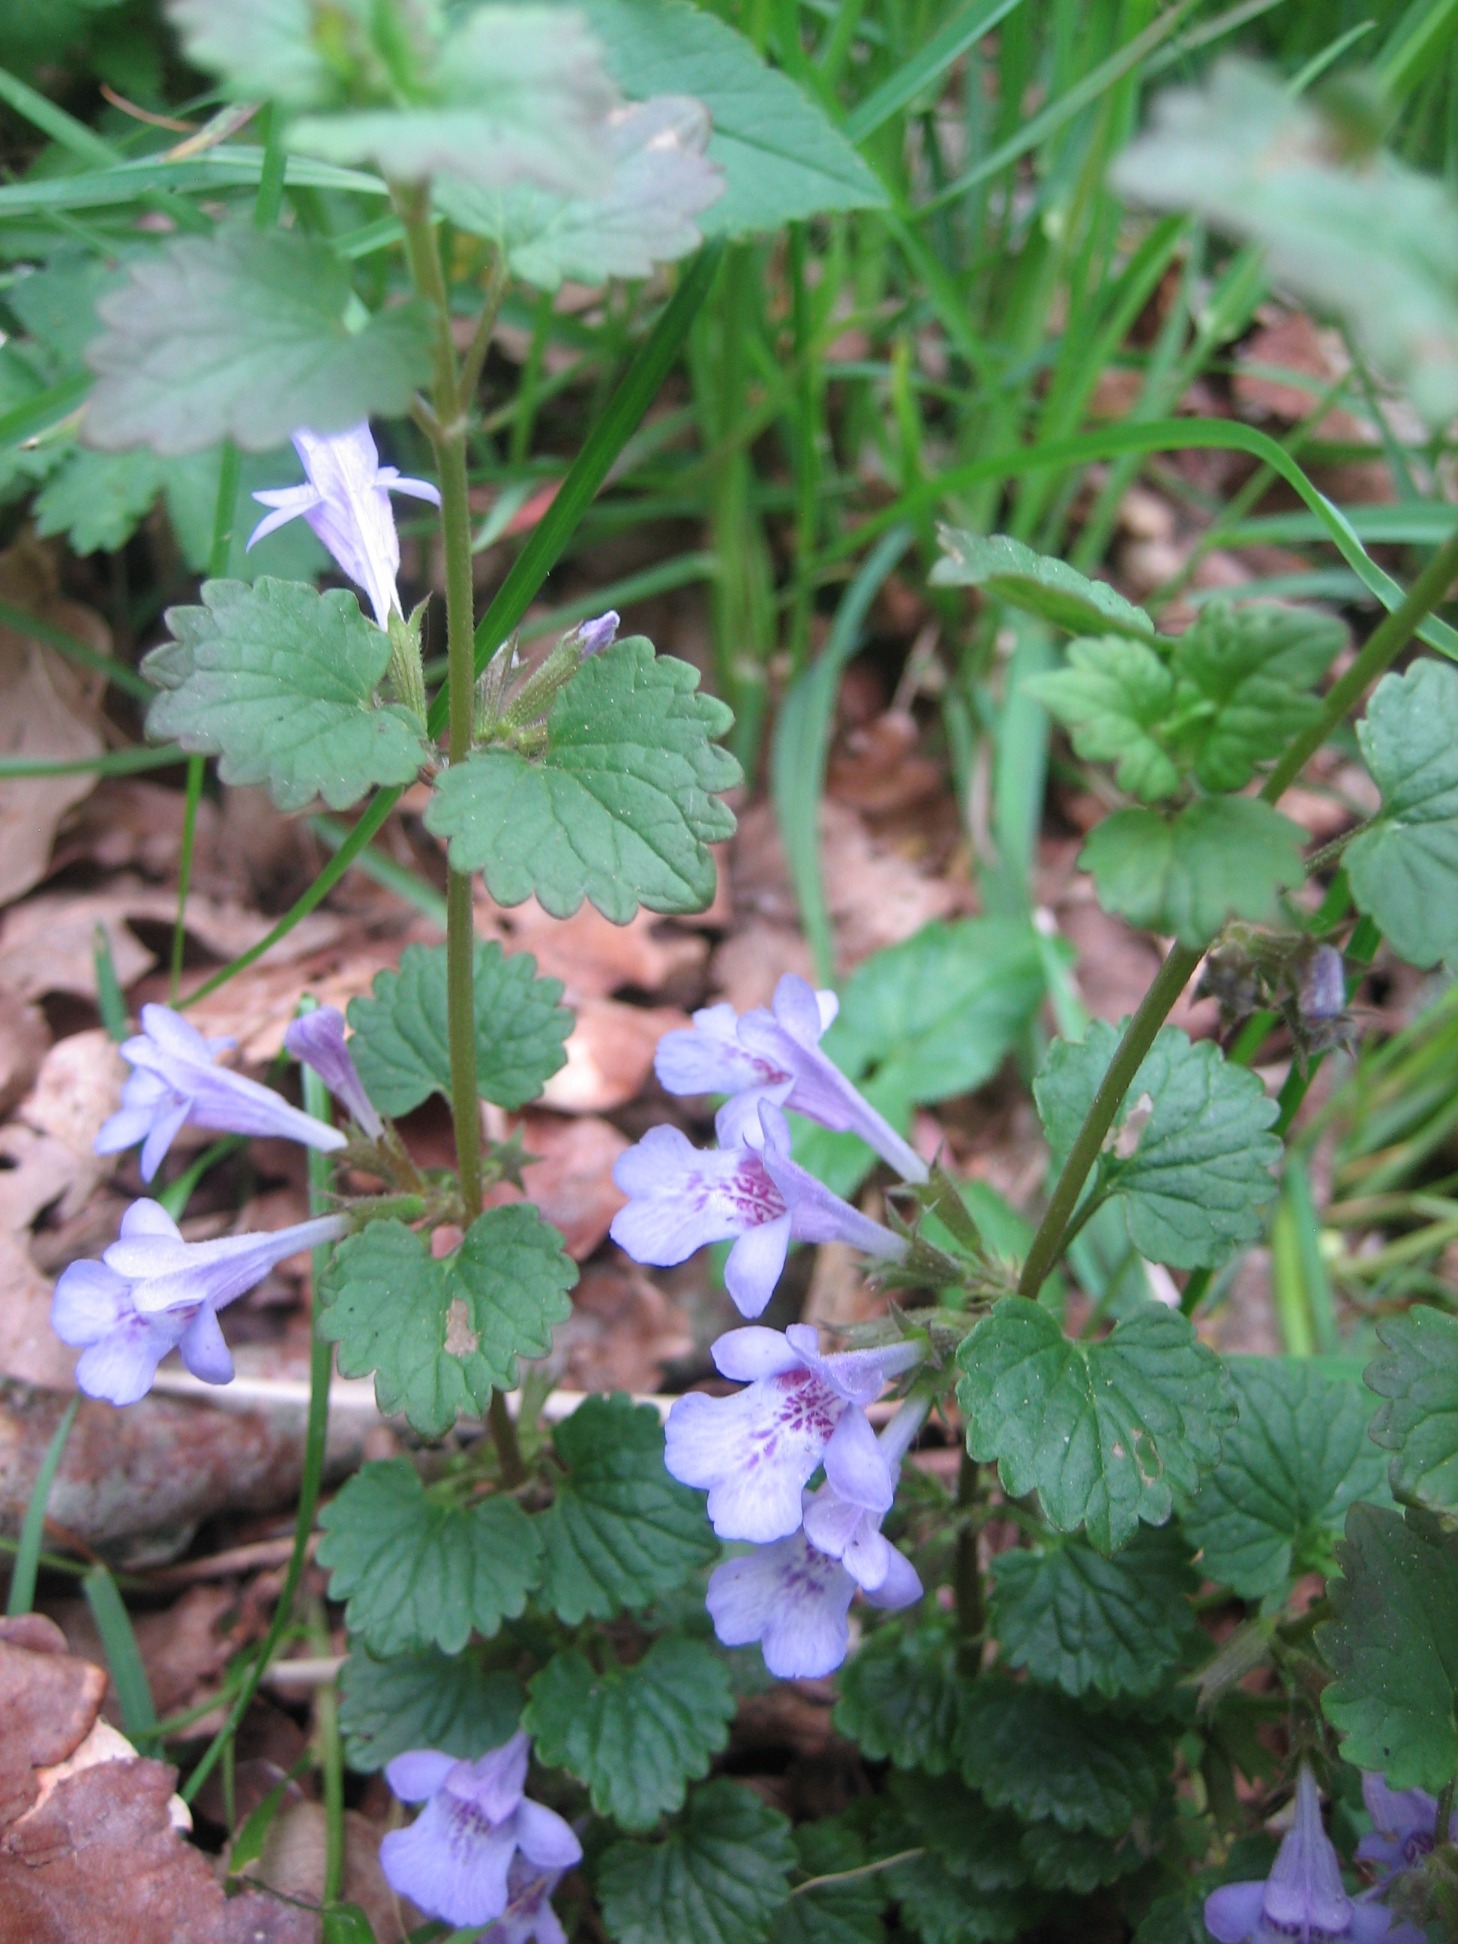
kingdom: Plantae
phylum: Tracheophyta
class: Magnoliopsida
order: Lamiales
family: Lamiaceae
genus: Glechoma
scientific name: Glechoma hederacea
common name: Korsknap
